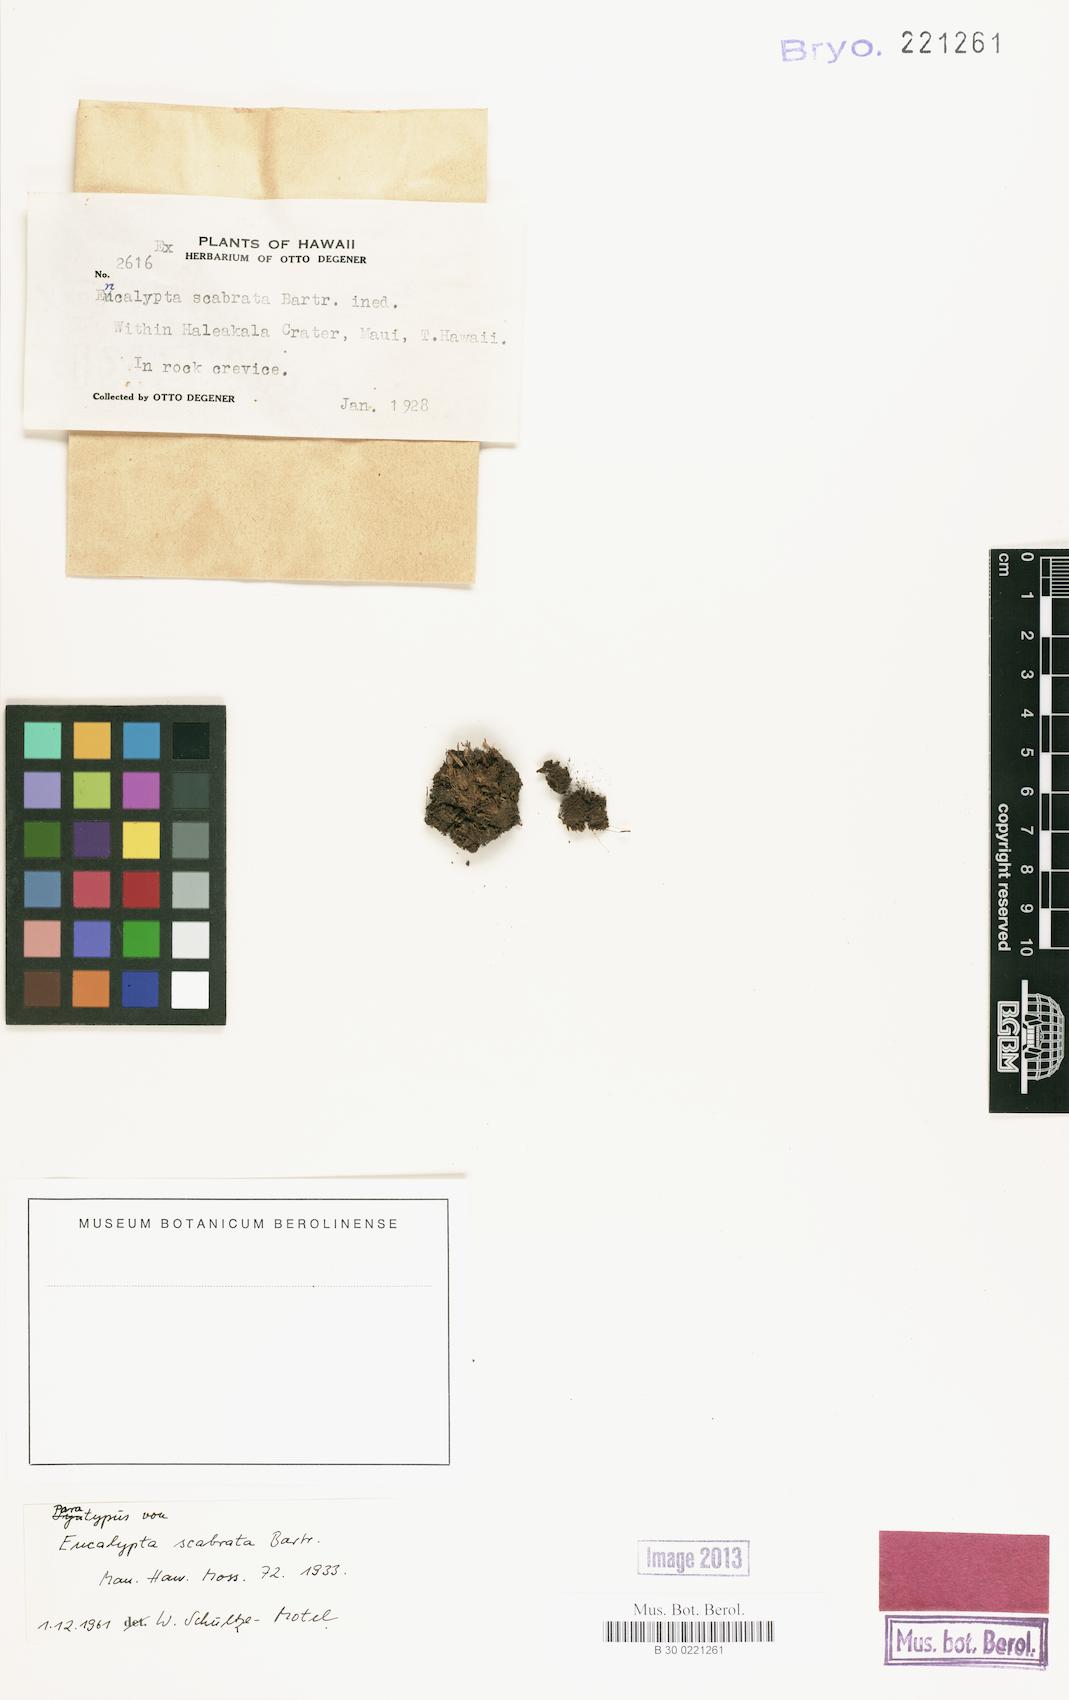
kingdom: Plantae
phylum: Bryophyta
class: Bryopsida
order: Encalyptales
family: Encalyptaceae
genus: Encalypta
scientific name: Encalypta ciliata
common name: Fringed extinguisher-moss
